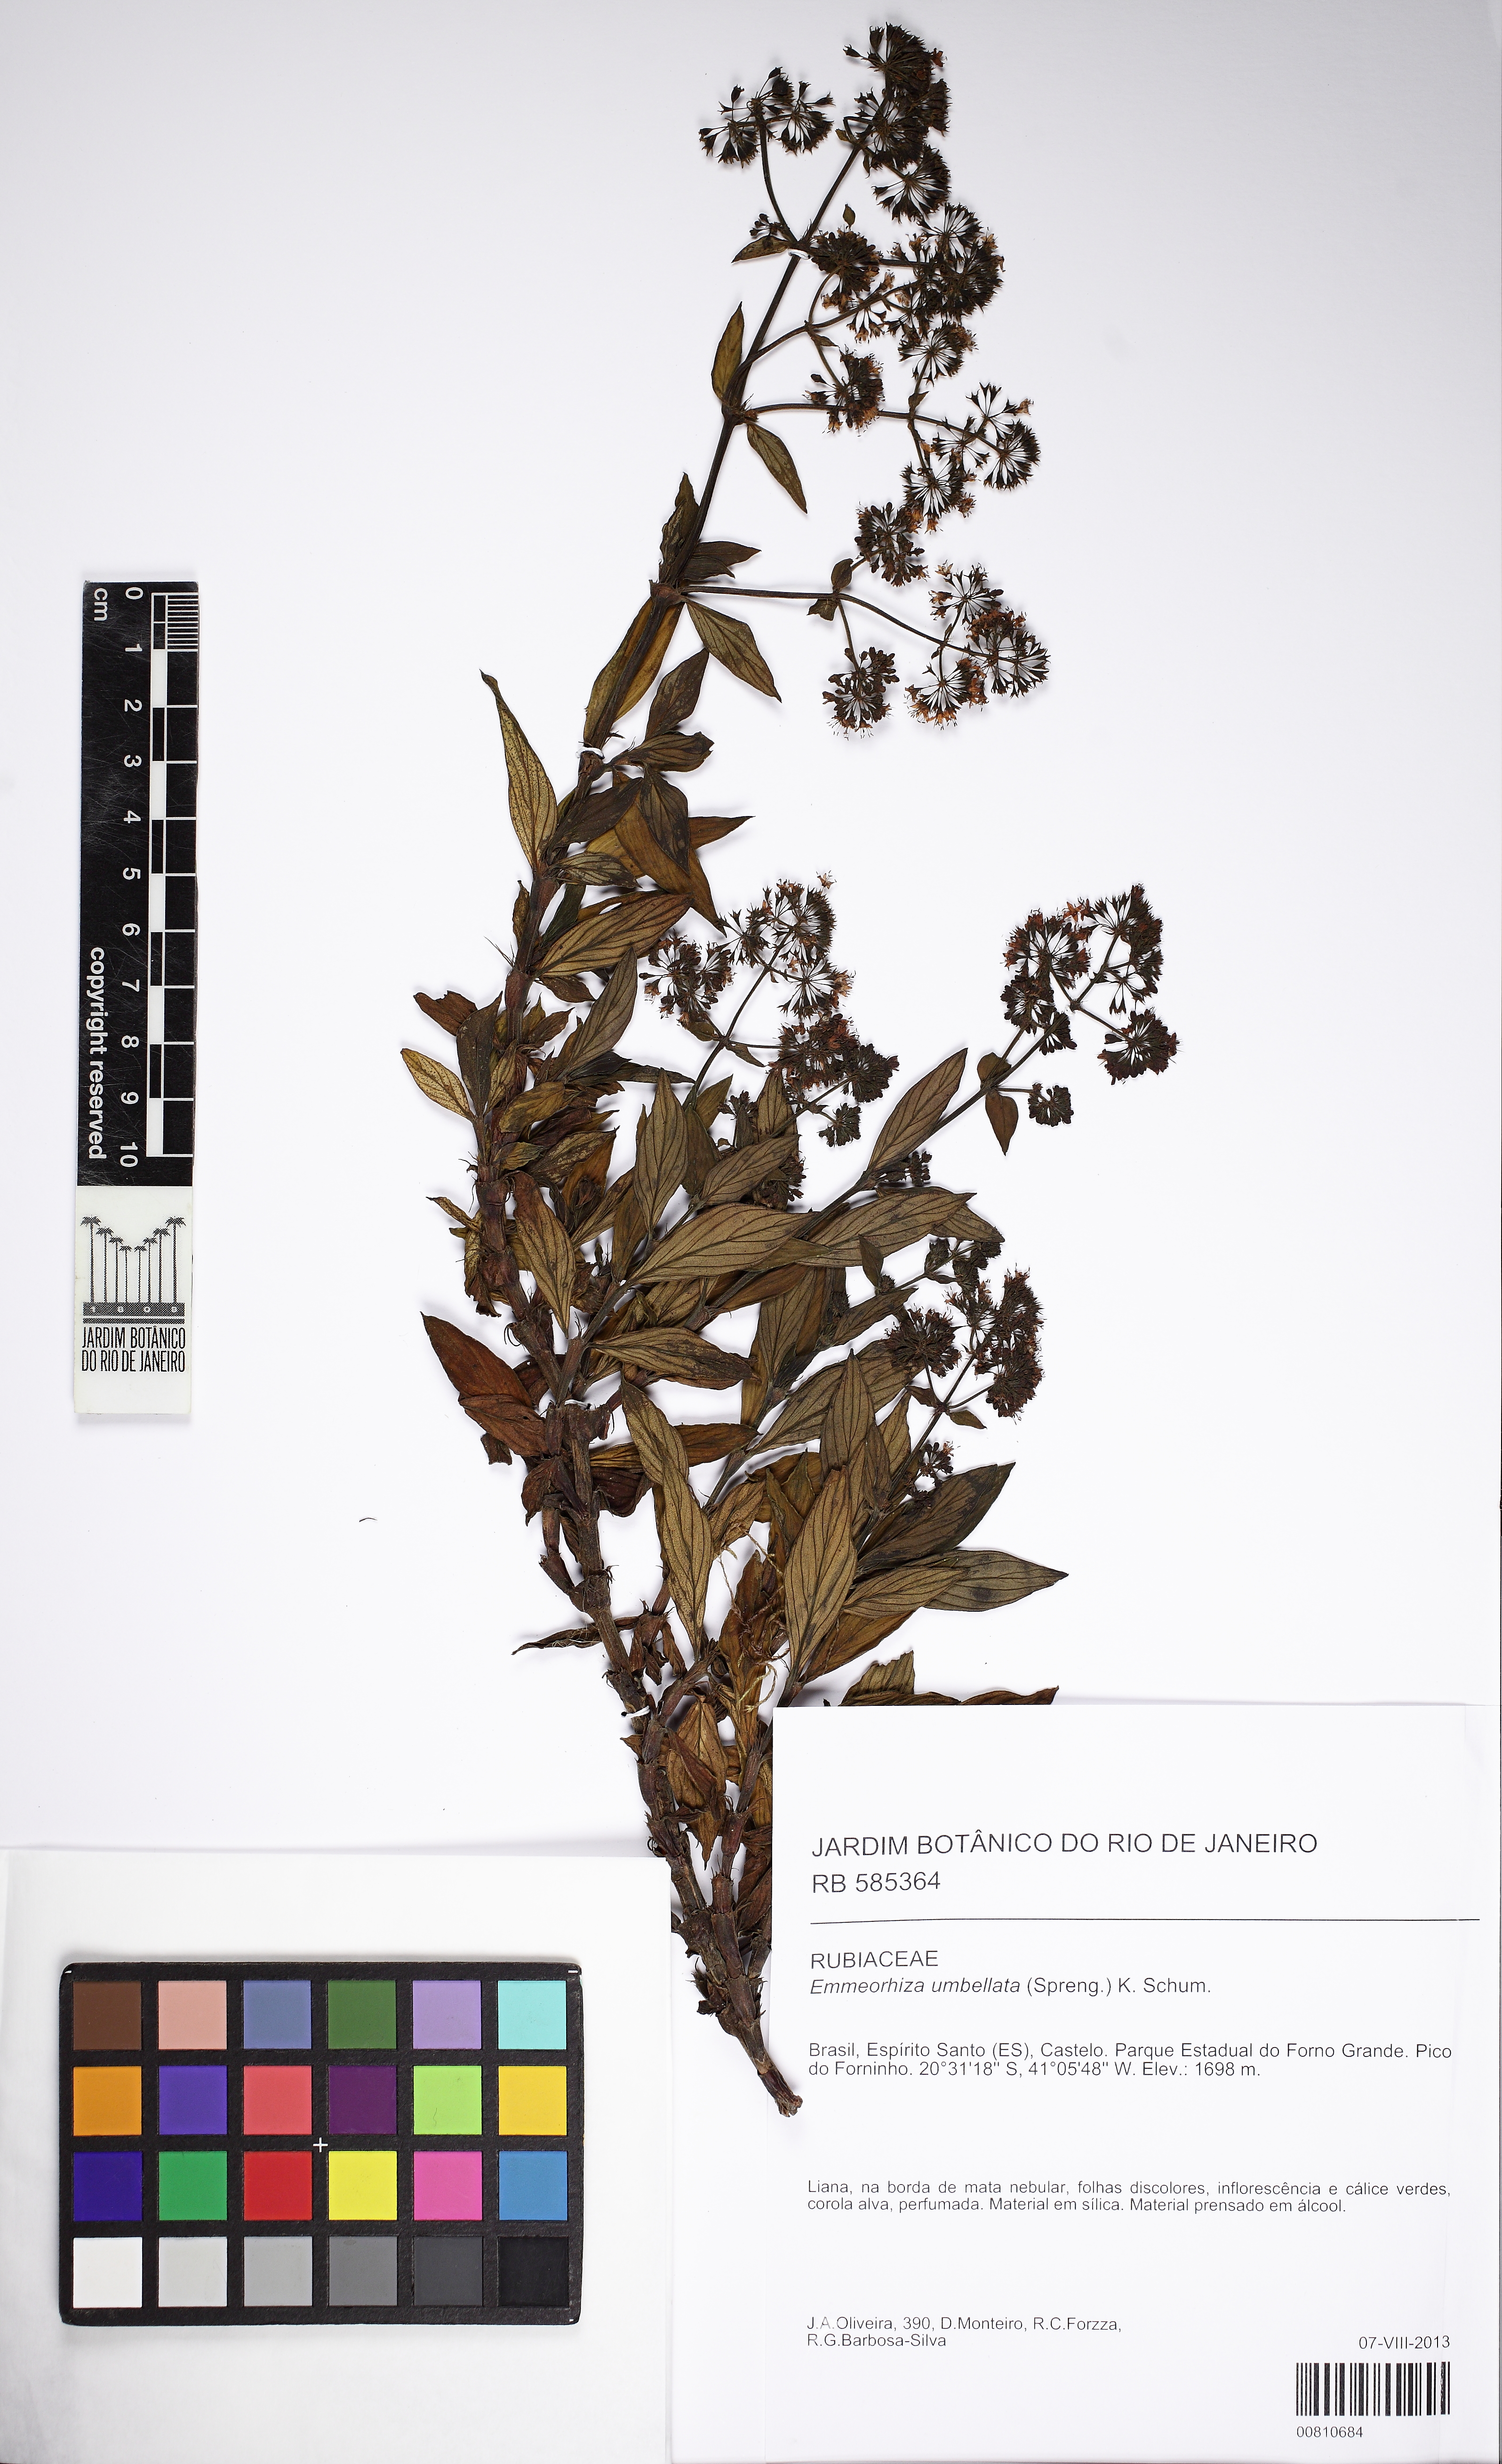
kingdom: Plantae
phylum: Tracheophyta
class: Magnoliopsida
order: Gentianales
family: Rubiaceae
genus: Emmeorhiza
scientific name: Emmeorhiza umbellata
